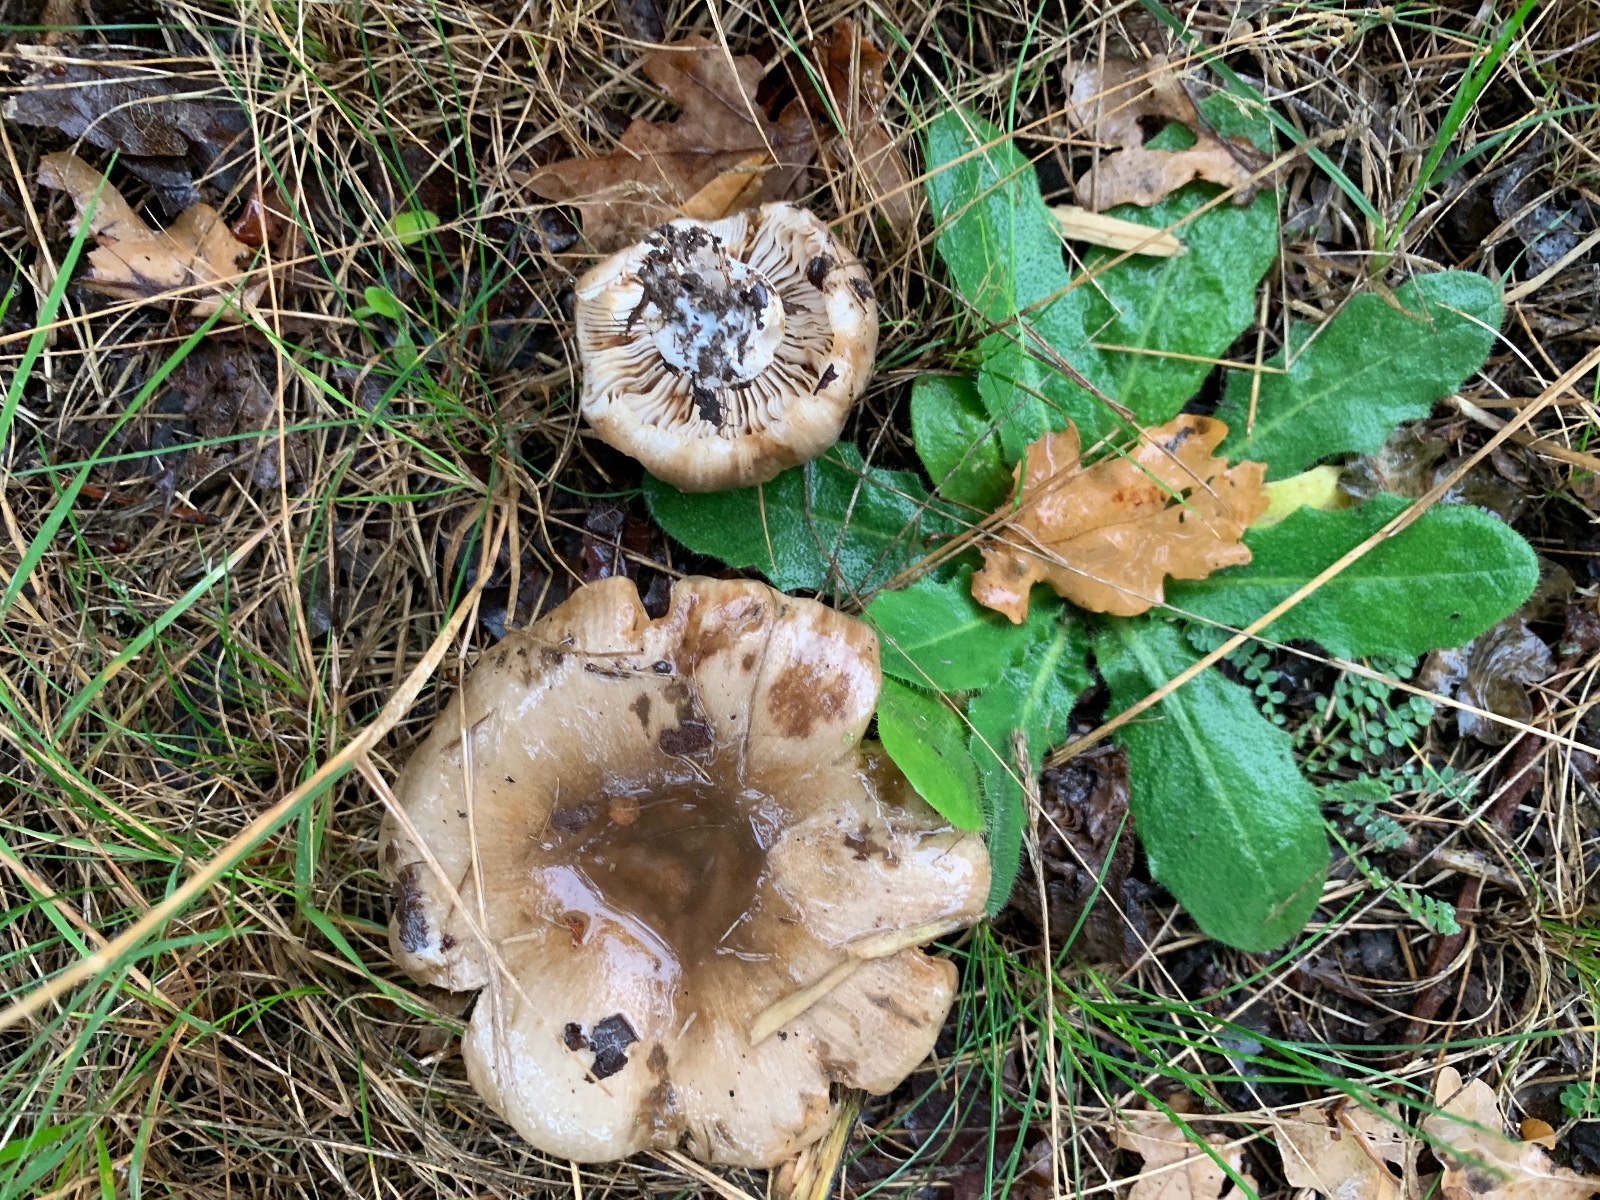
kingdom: Fungi
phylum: Basidiomycota
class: Agaricomycetes
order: Russulales
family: Russulaceae
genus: Russula
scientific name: Russula sororia
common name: brun kam-skørhat
